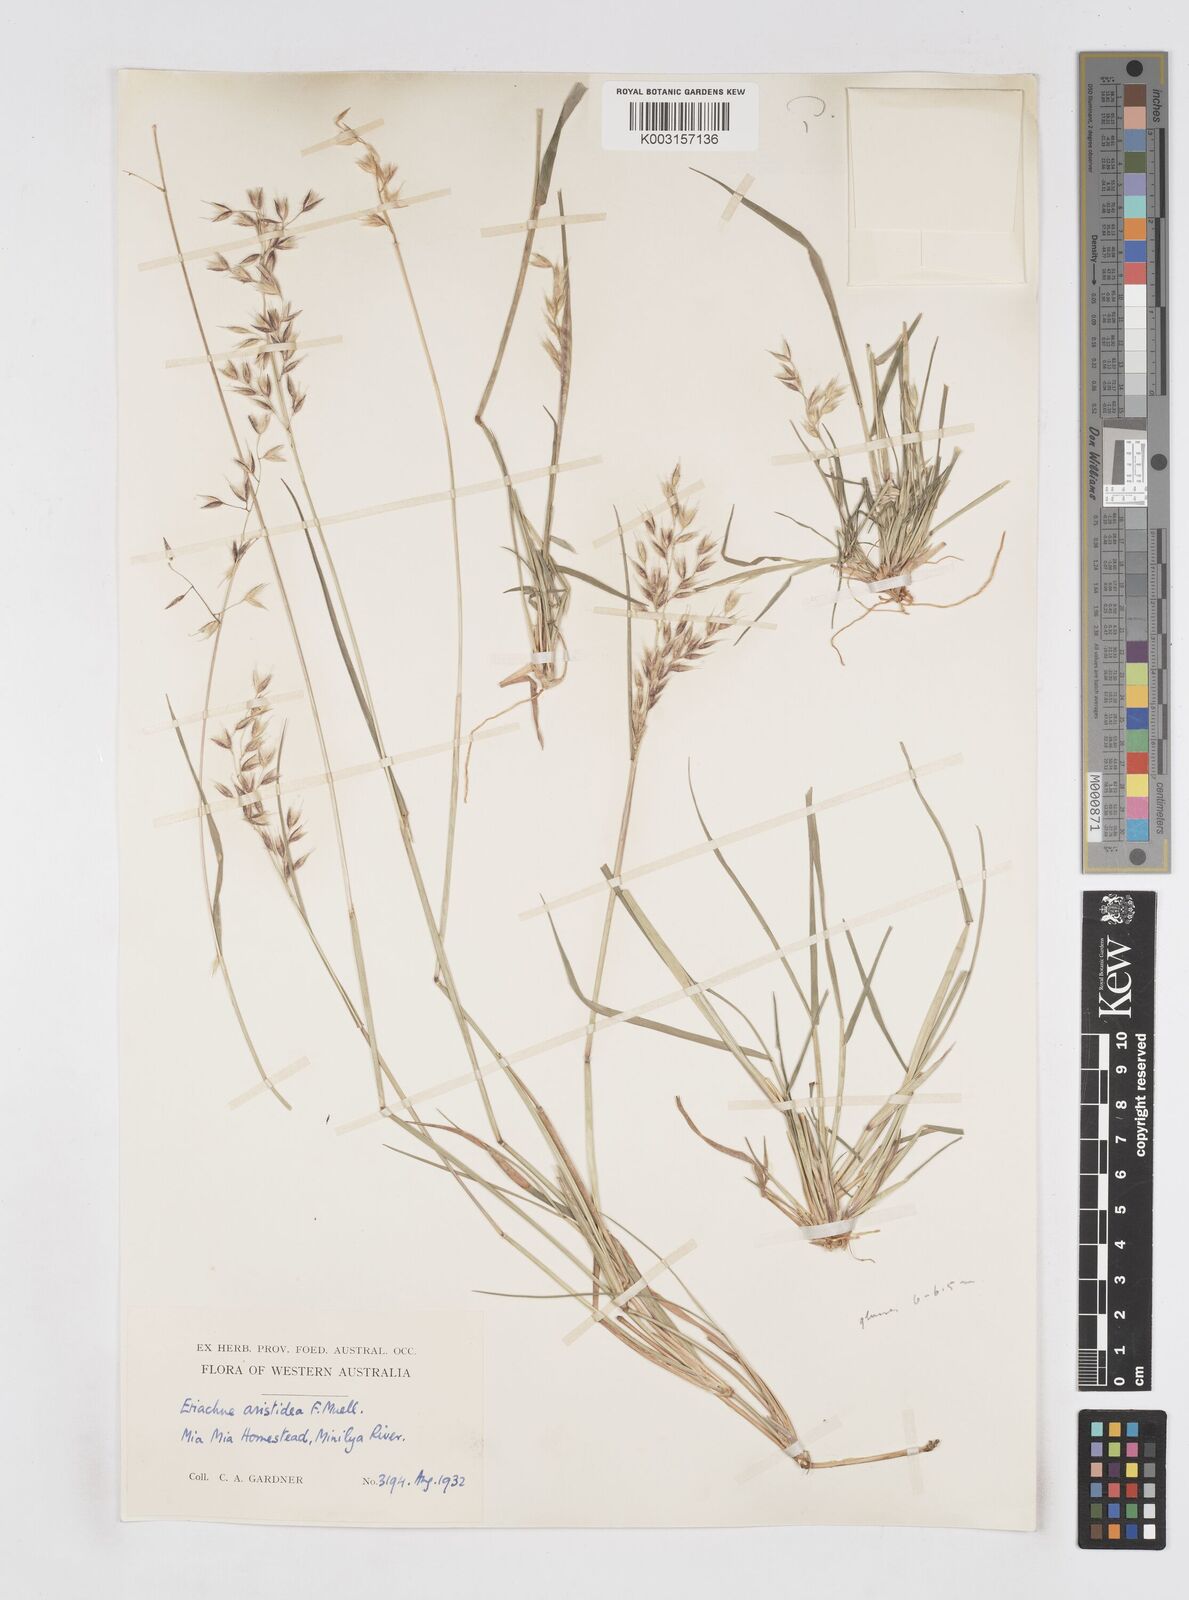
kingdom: Plantae
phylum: Tracheophyta
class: Liliopsida
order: Poales
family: Poaceae
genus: Eriachne
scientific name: Eriachne aristidea
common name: Three-awn wanderrie grass
